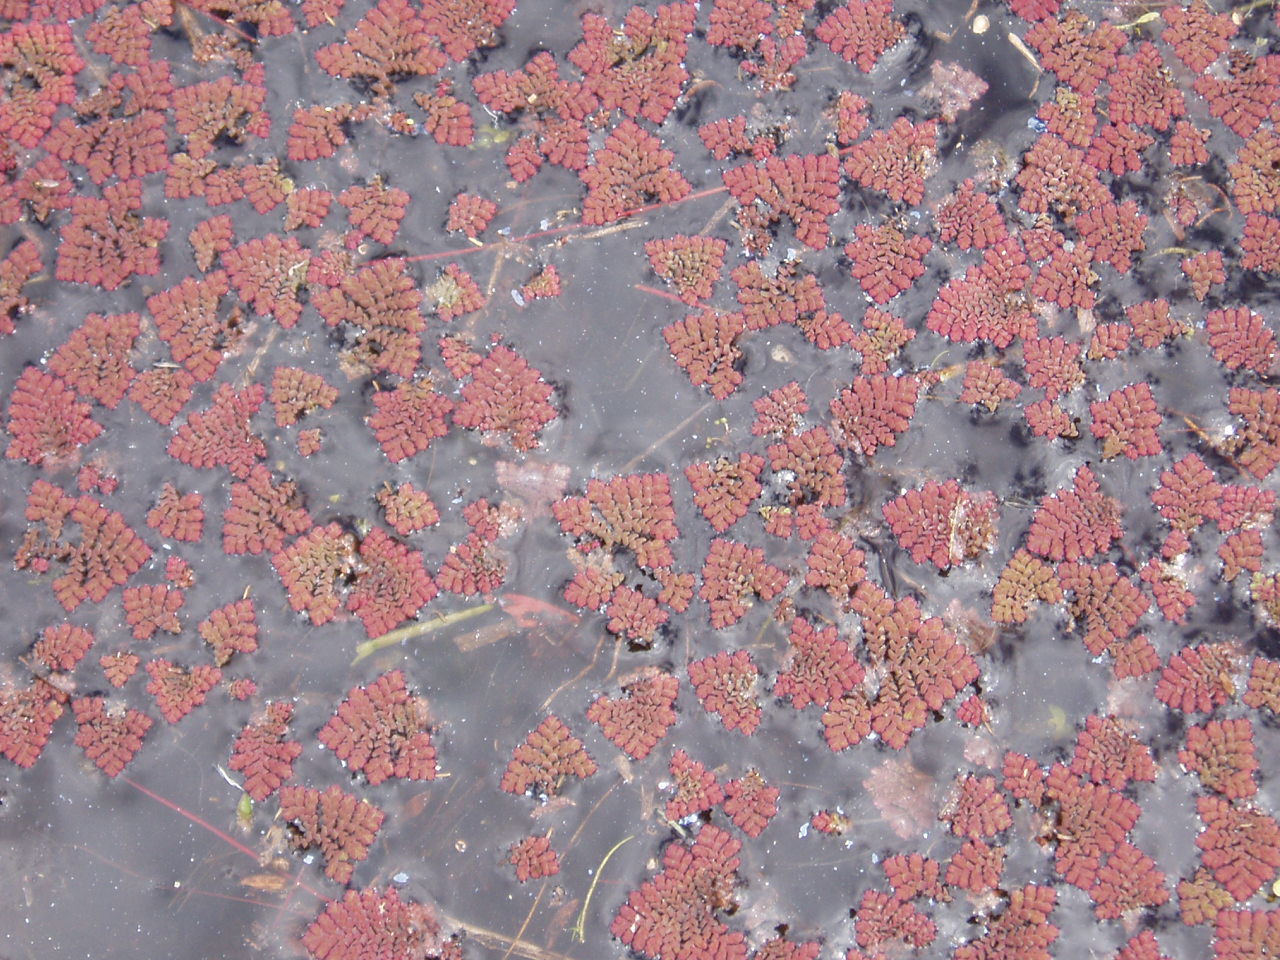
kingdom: Plantae
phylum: Tracheophyta
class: Polypodiopsida
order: Salviniales
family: Salviniaceae
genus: Azolla
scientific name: Azolla pinnata
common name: Ferny azolla
